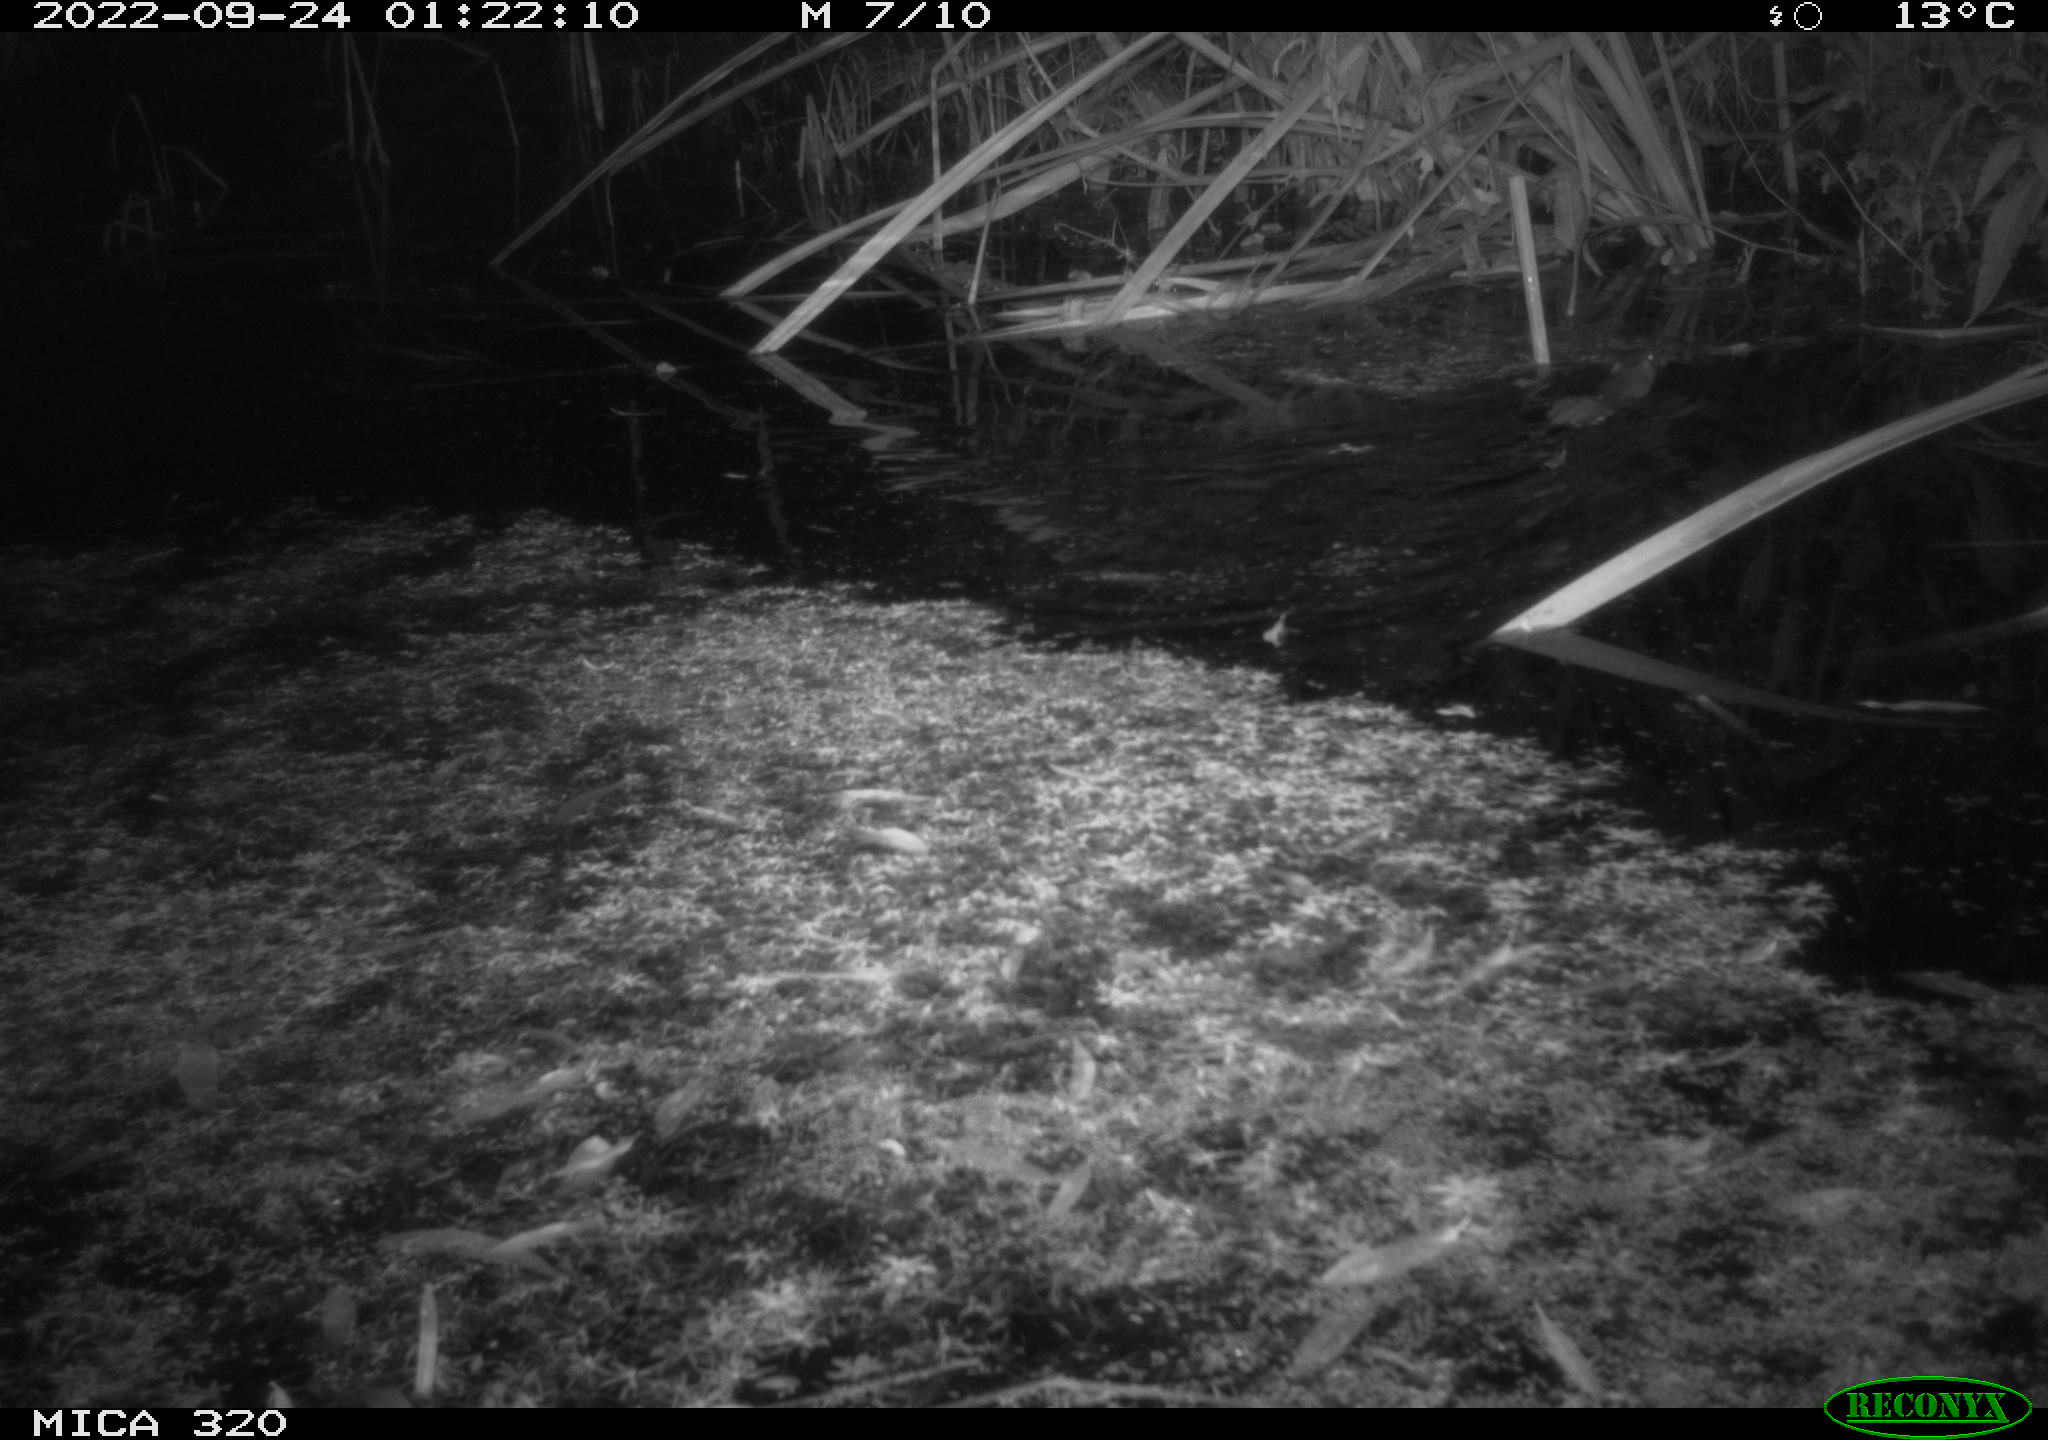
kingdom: Animalia
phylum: Chordata
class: Mammalia
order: Rodentia
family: Muridae
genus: Rattus
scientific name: Rattus norvegicus
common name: Brown rat
